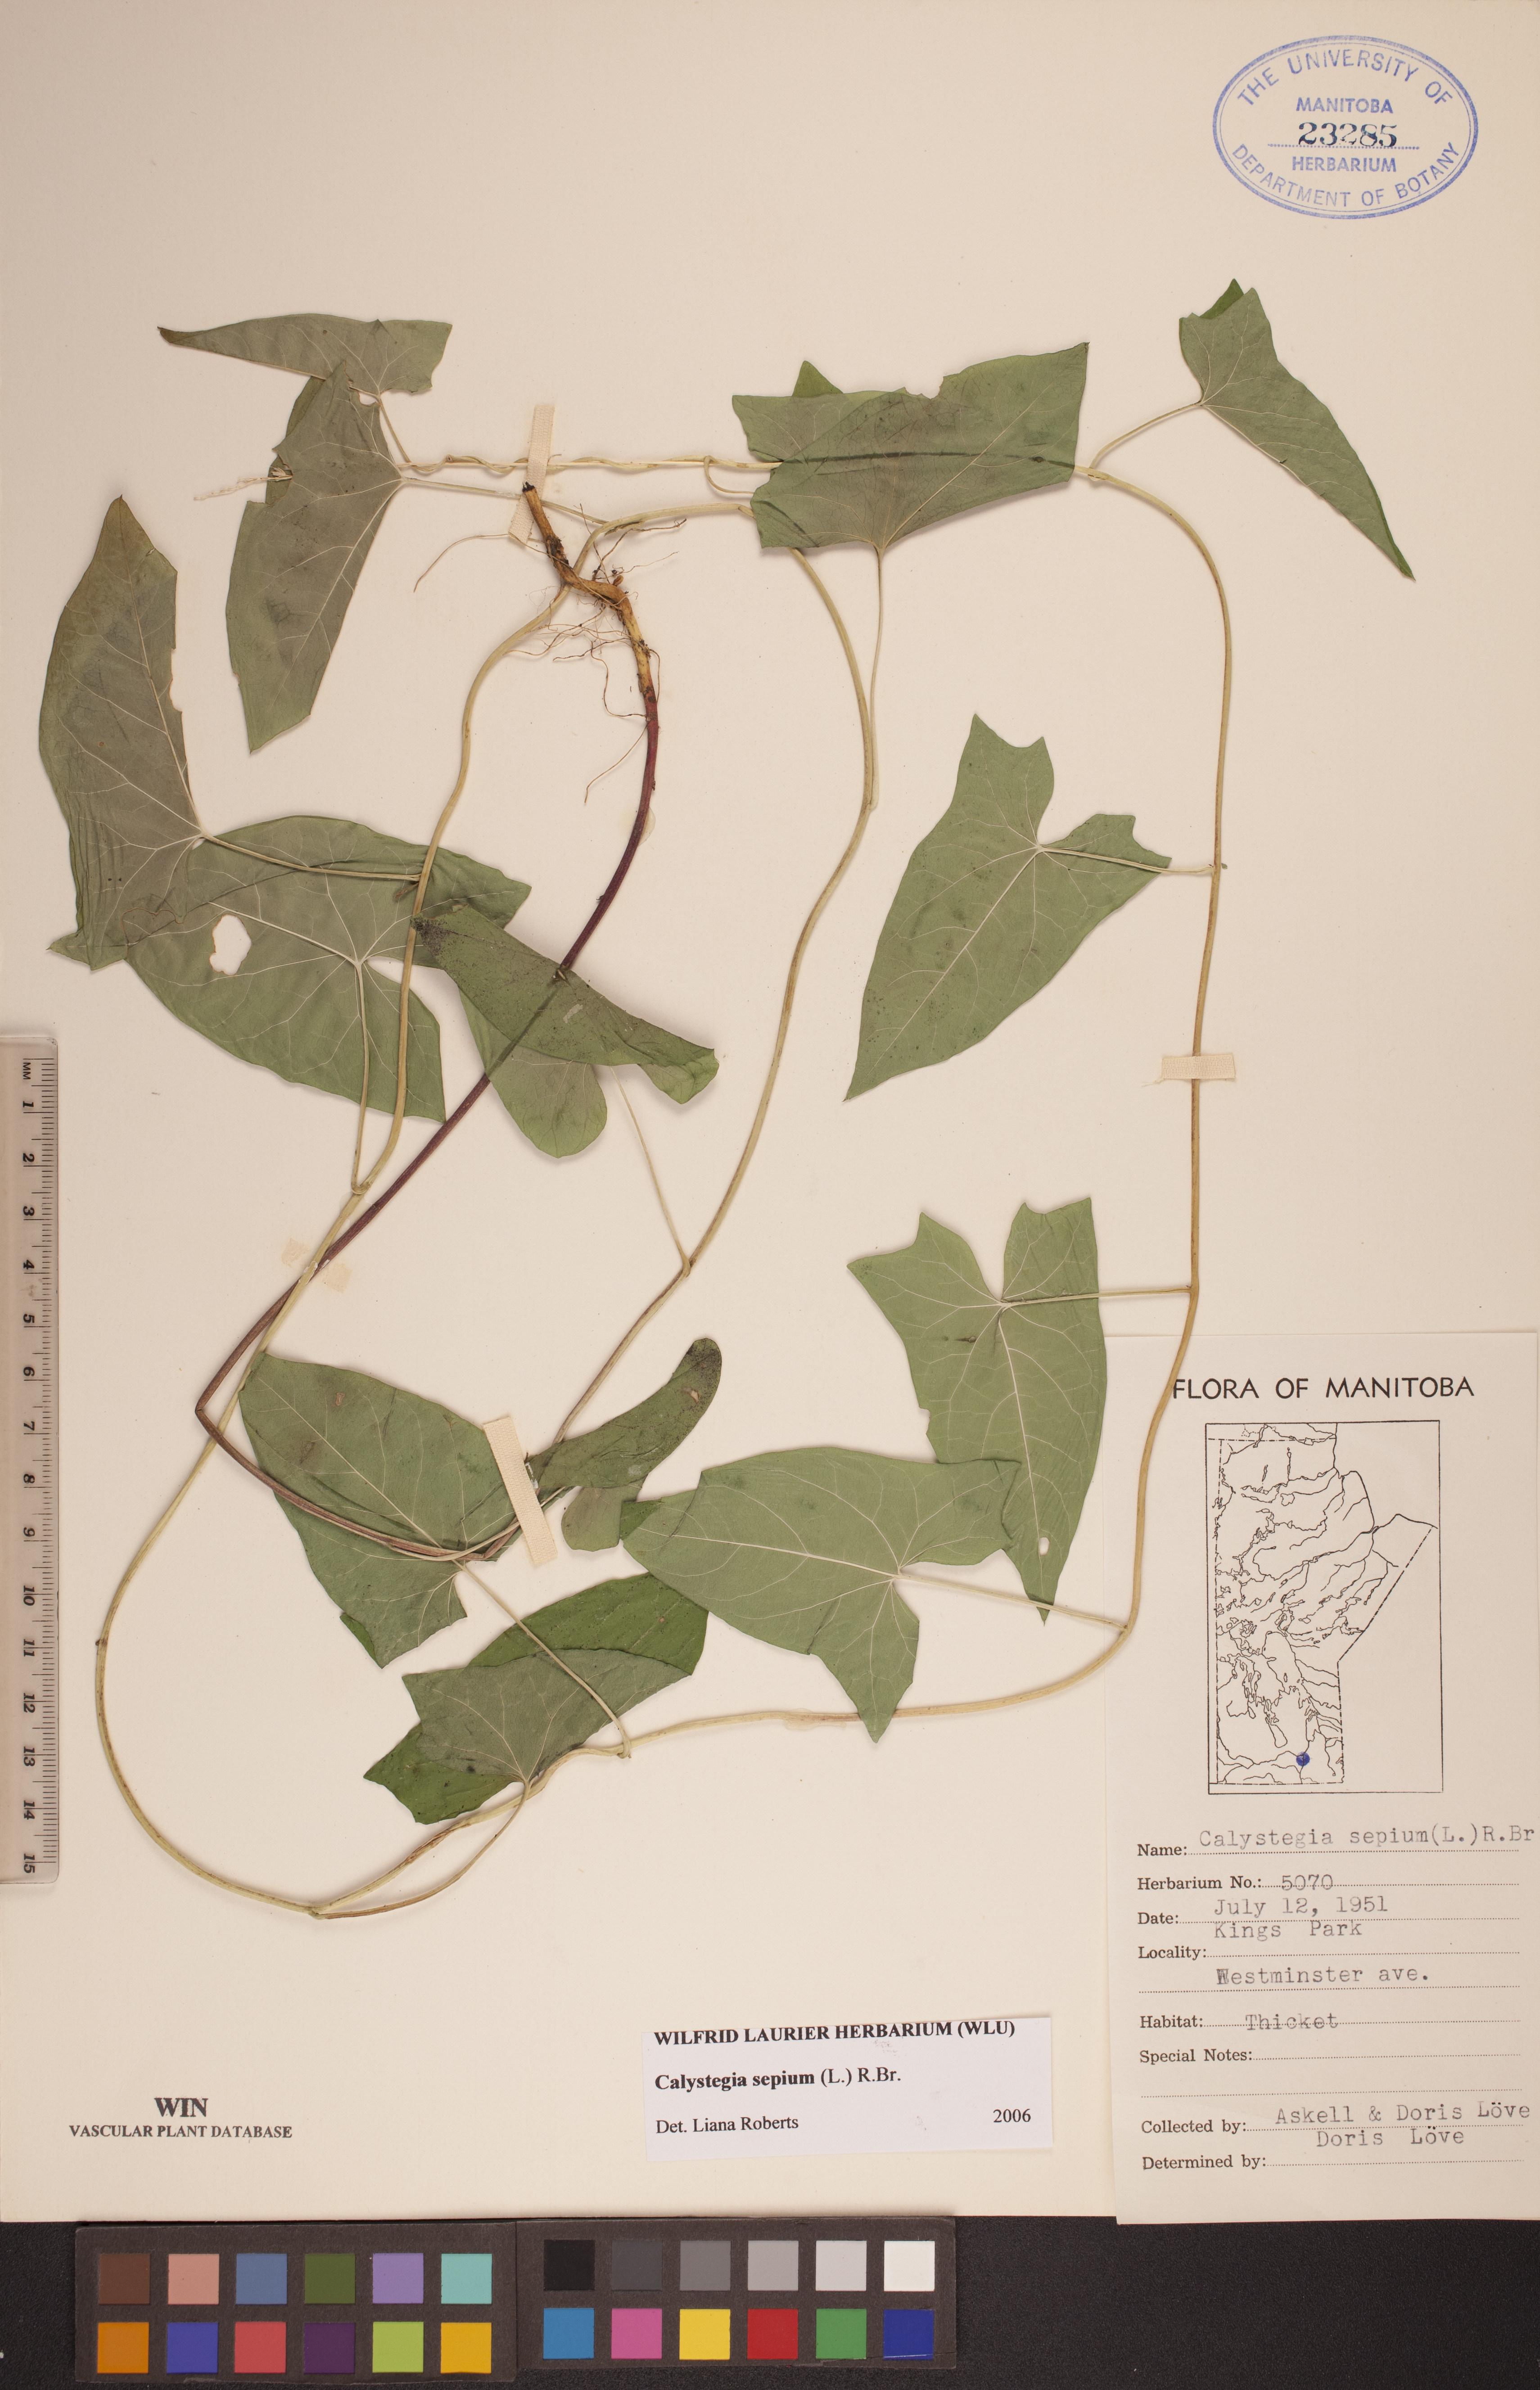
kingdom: Plantae
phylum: Tracheophyta
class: Magnoliopsida
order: Solanales
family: Convolvulaceae
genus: Calystegia
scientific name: Calystegia sepium
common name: Hedge bindweed
